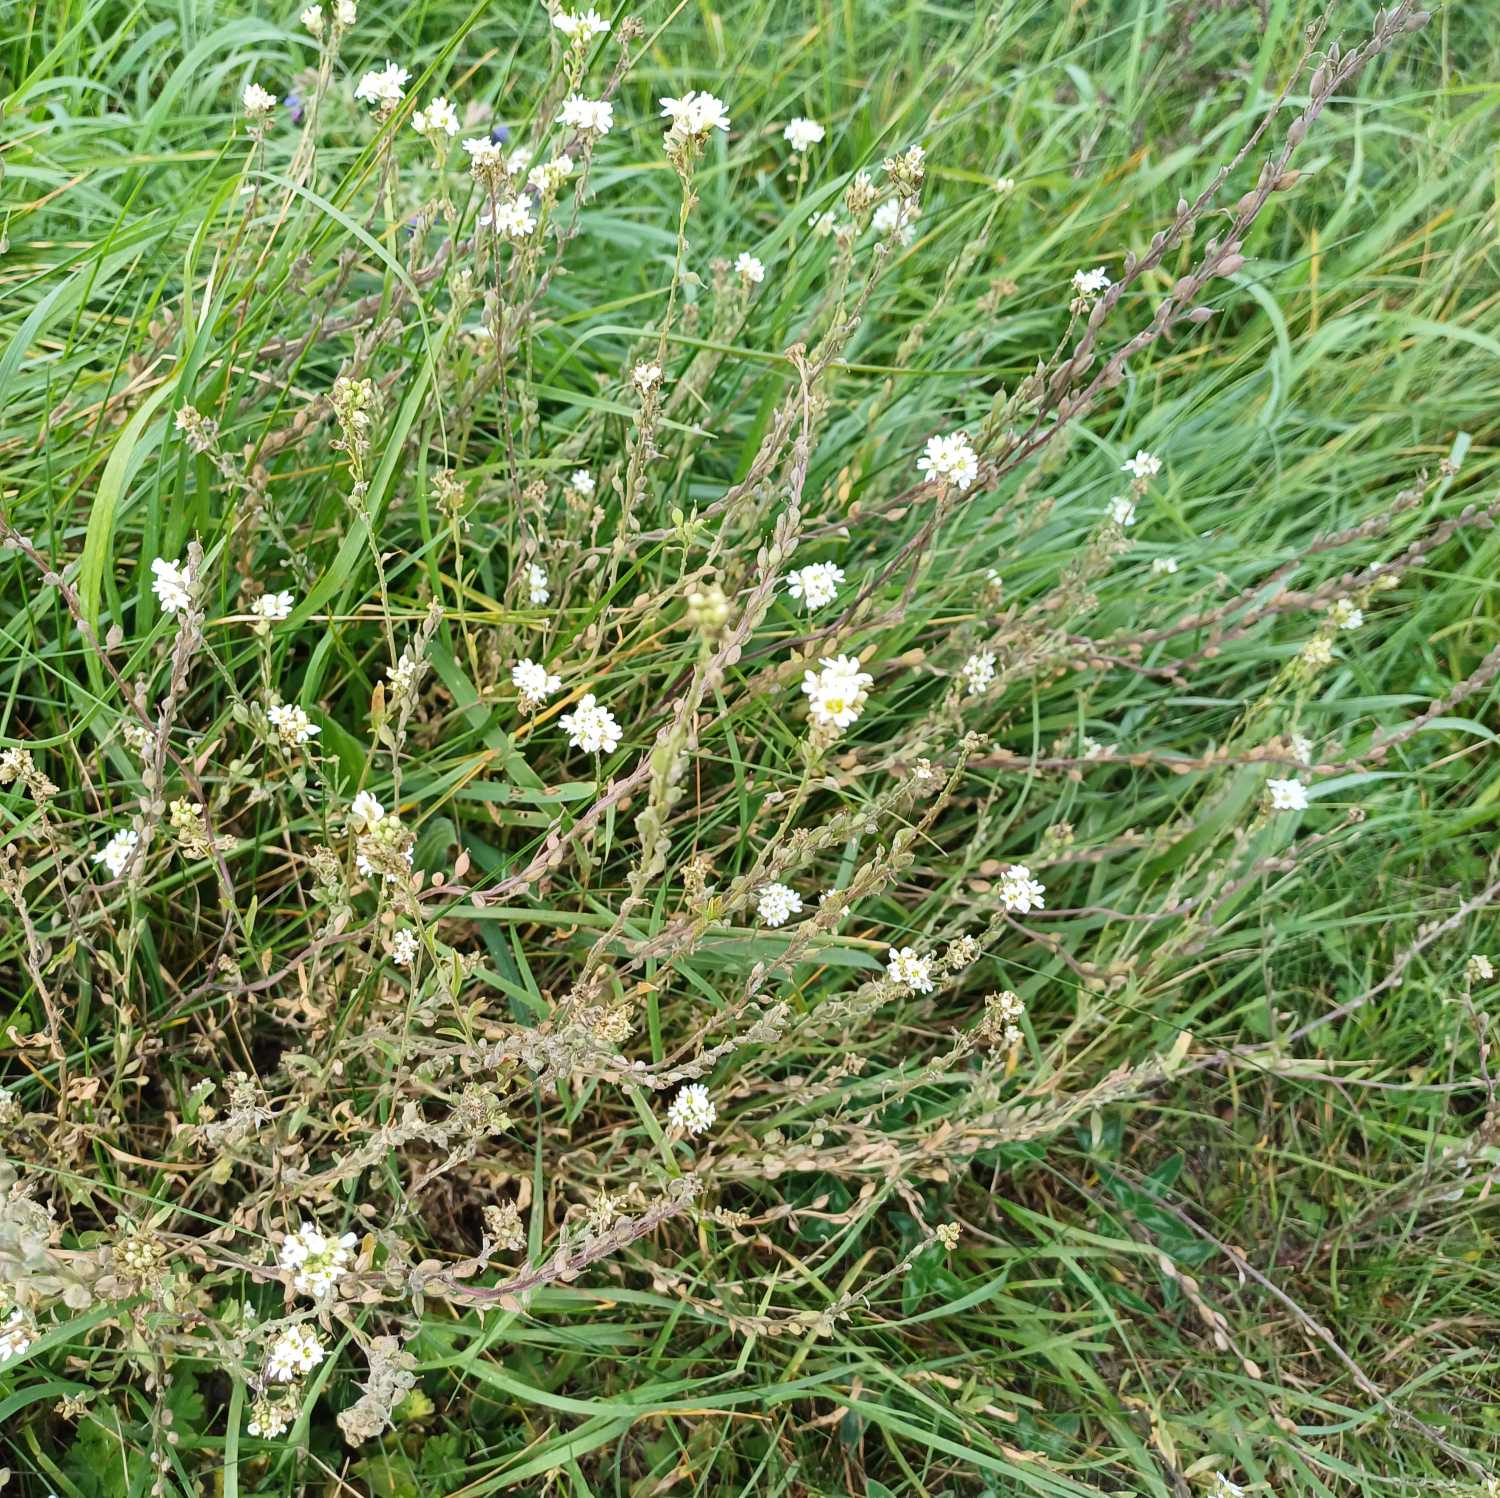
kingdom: Plantae
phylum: Tracheophyta
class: Magnoliopsida
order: Brassicales
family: Brassicaceae
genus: Berteroa
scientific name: Berteroa incana
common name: Kløvplade
